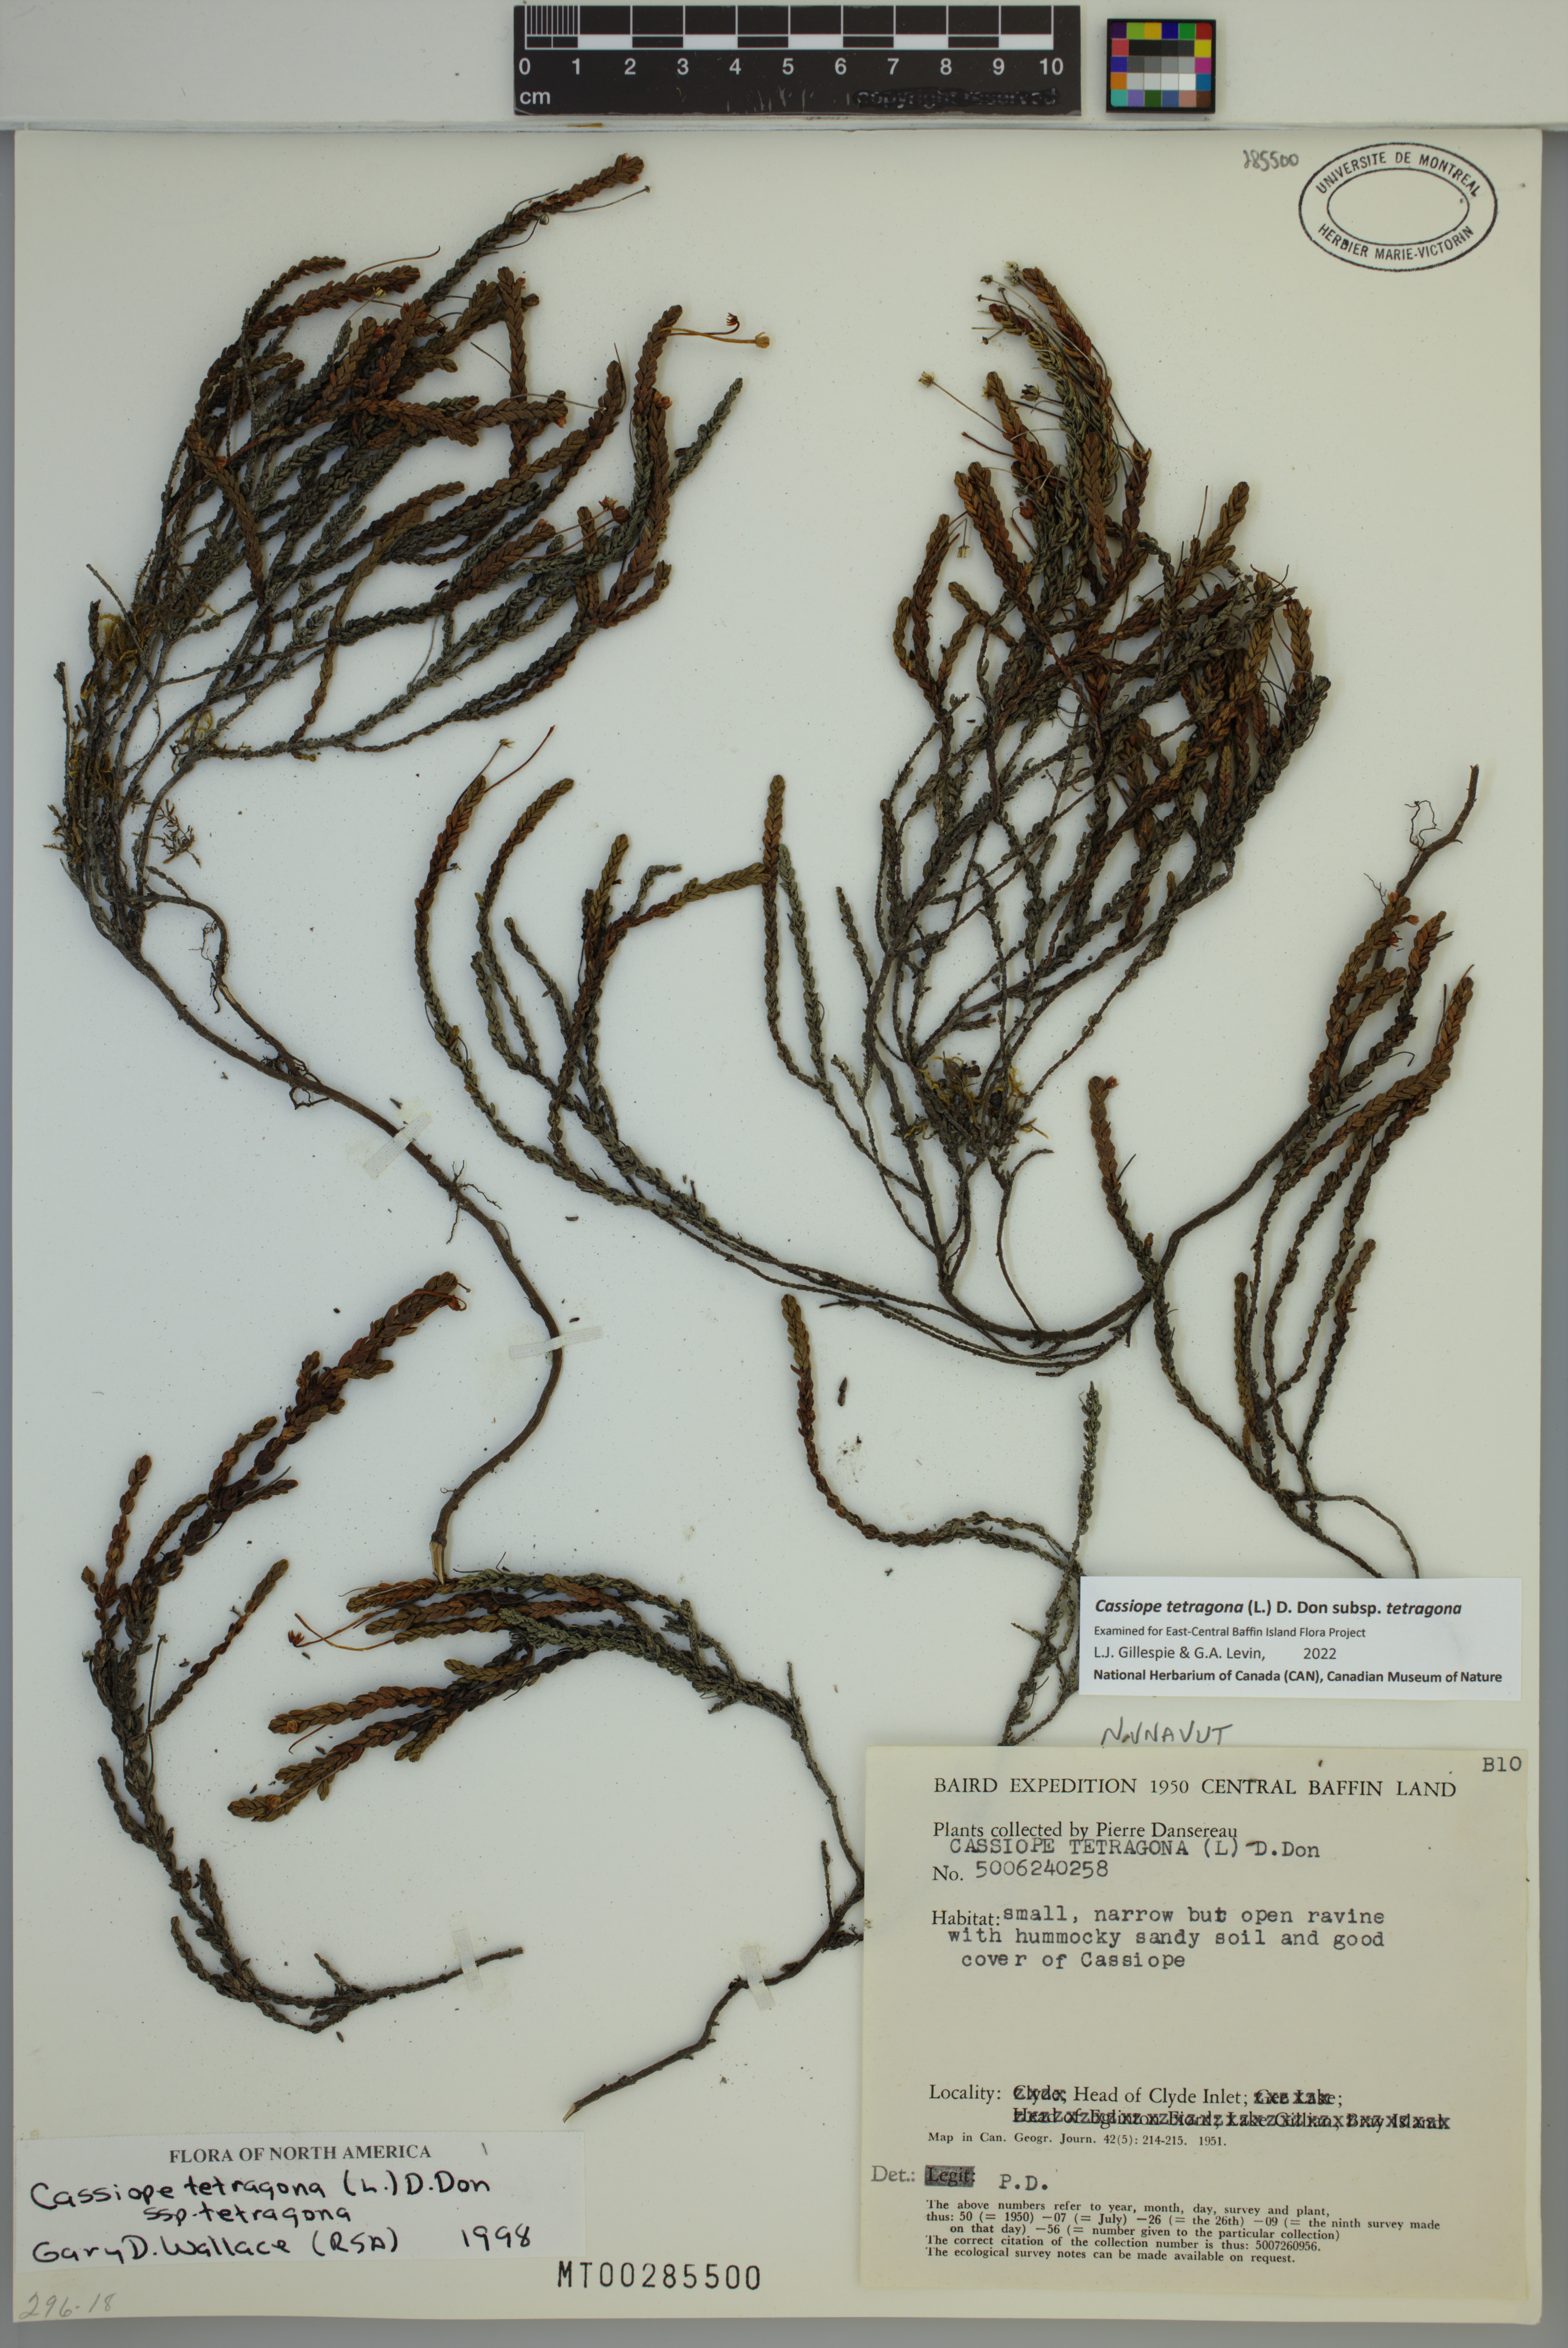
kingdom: Plantae
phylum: Tracheophyta
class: Magnoliopsida
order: Ericales
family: Ericaceae
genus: Cassiope
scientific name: Cassiope tetragona
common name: Arctic bell heather
